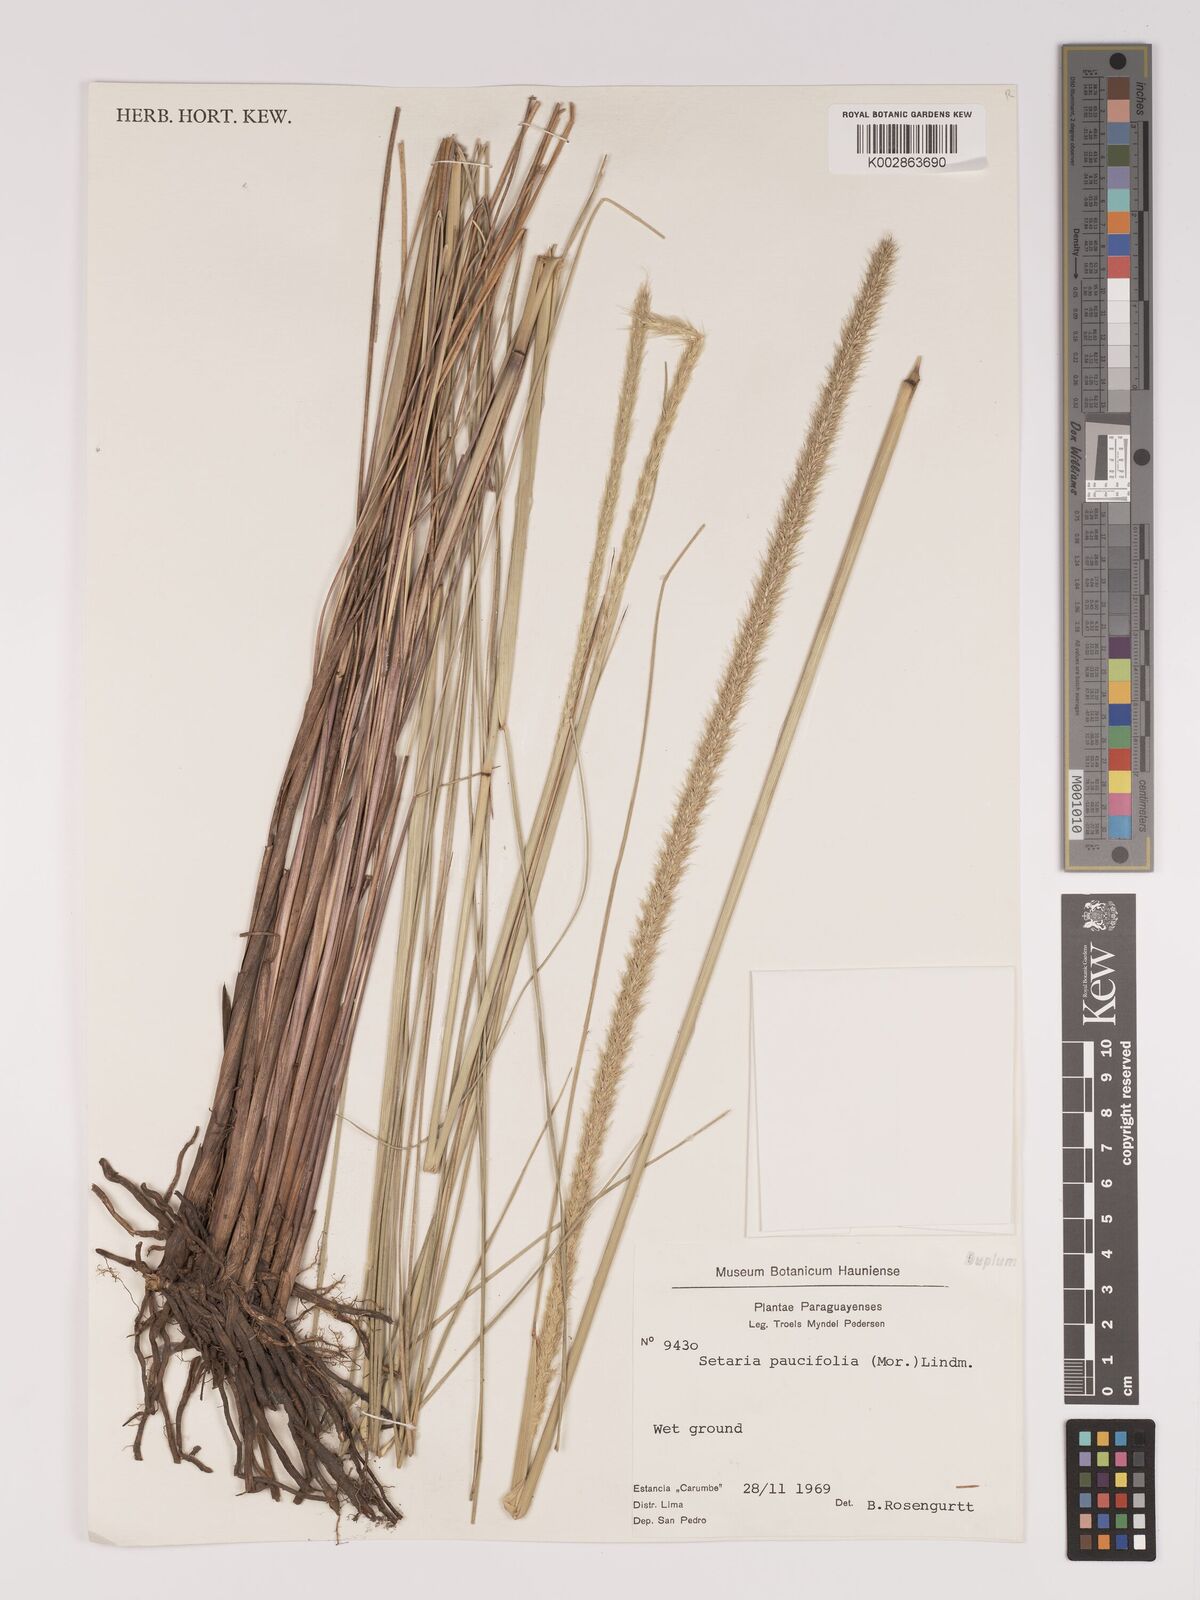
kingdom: Plantae
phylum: Tracheophyta
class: Liliopsida
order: Poales
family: Poaceae
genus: Setaria
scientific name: Setaria paucifolia
